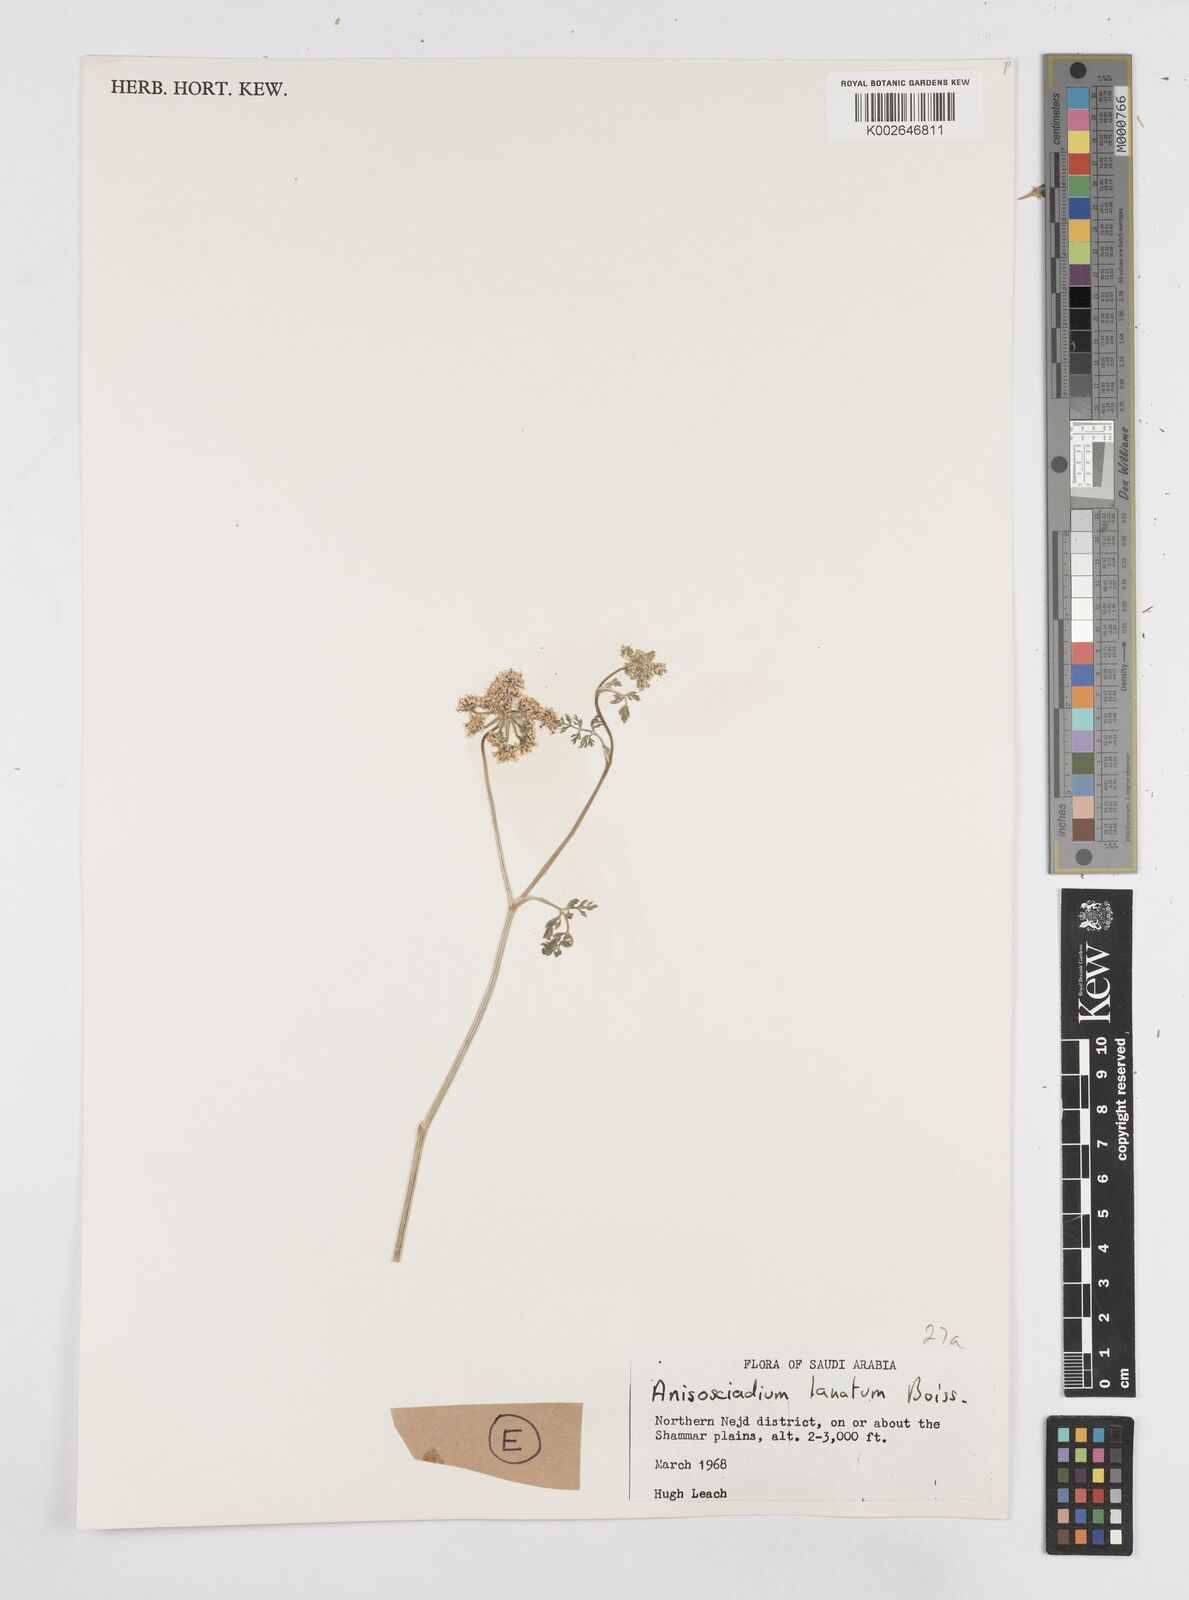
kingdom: Plantae
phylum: Tracheophyta
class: Magnoliopsida
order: Apiales
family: Apiaceae
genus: Anisosciadium
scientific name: Anisosciadium lanatum
